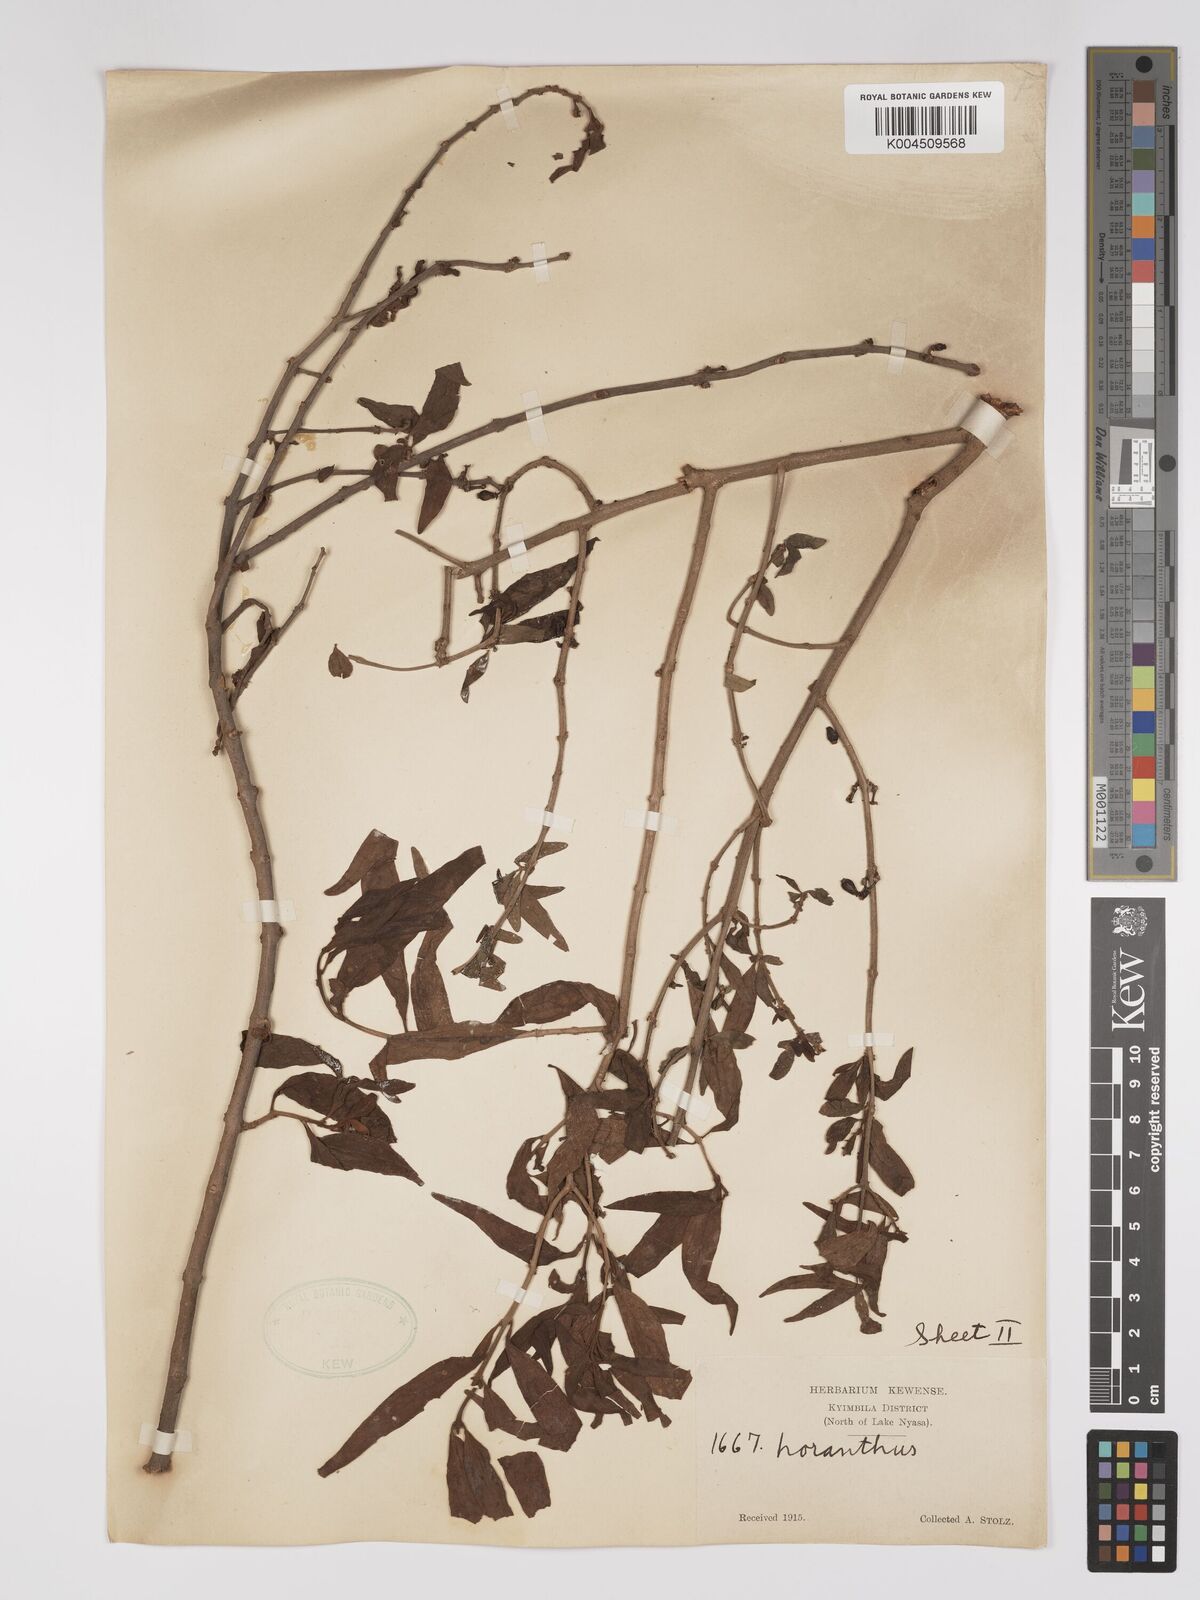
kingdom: Plantae
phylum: Tracheophyta
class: Magnoliopsida
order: Santalales
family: Loranthaceae
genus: Englerina
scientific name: Englerina inaequilatera
